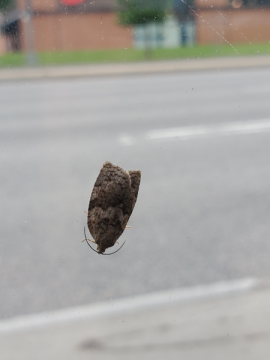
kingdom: Animalia
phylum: Arthropoda
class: Insecta
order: Lepidoptera
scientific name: Lepidoptera
